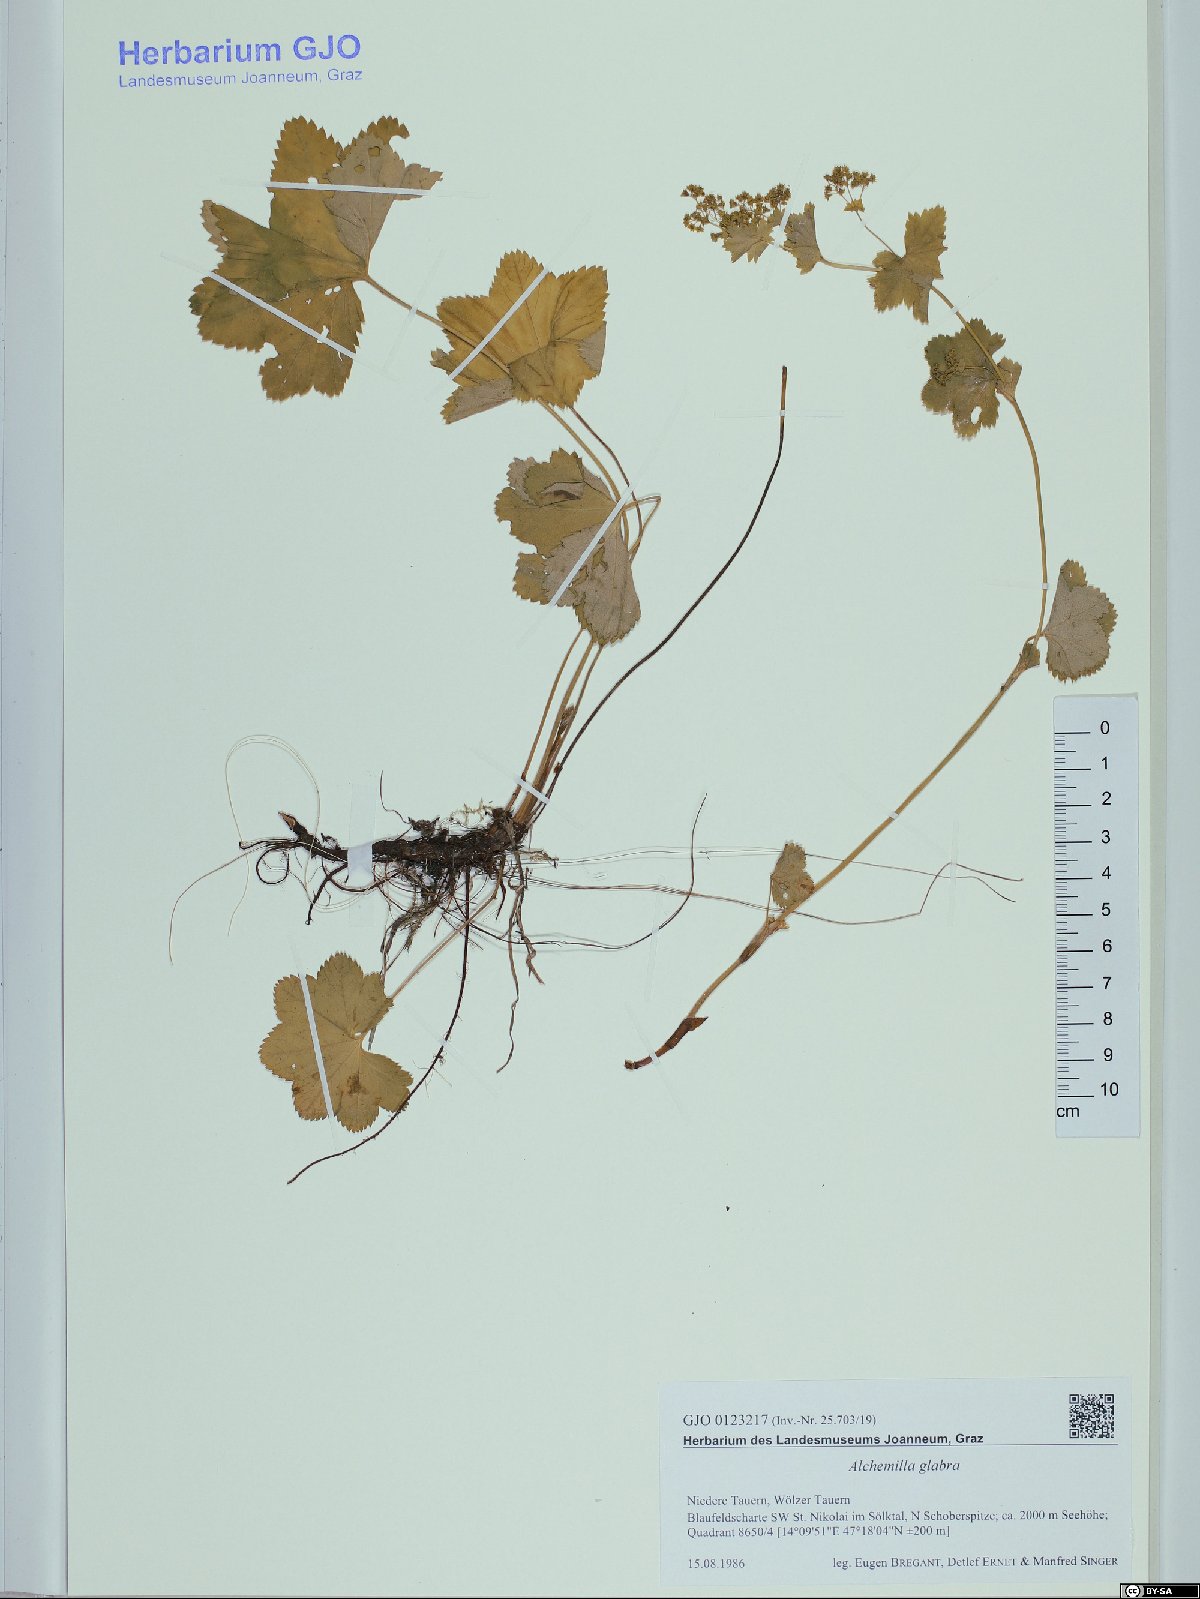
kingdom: Plantae
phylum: Tracheophyta
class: Magnoliopsida
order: Rosales
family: Rosaceae
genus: Alchemilla
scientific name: Alchemilla glabra
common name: Smooth lady's-mantle
